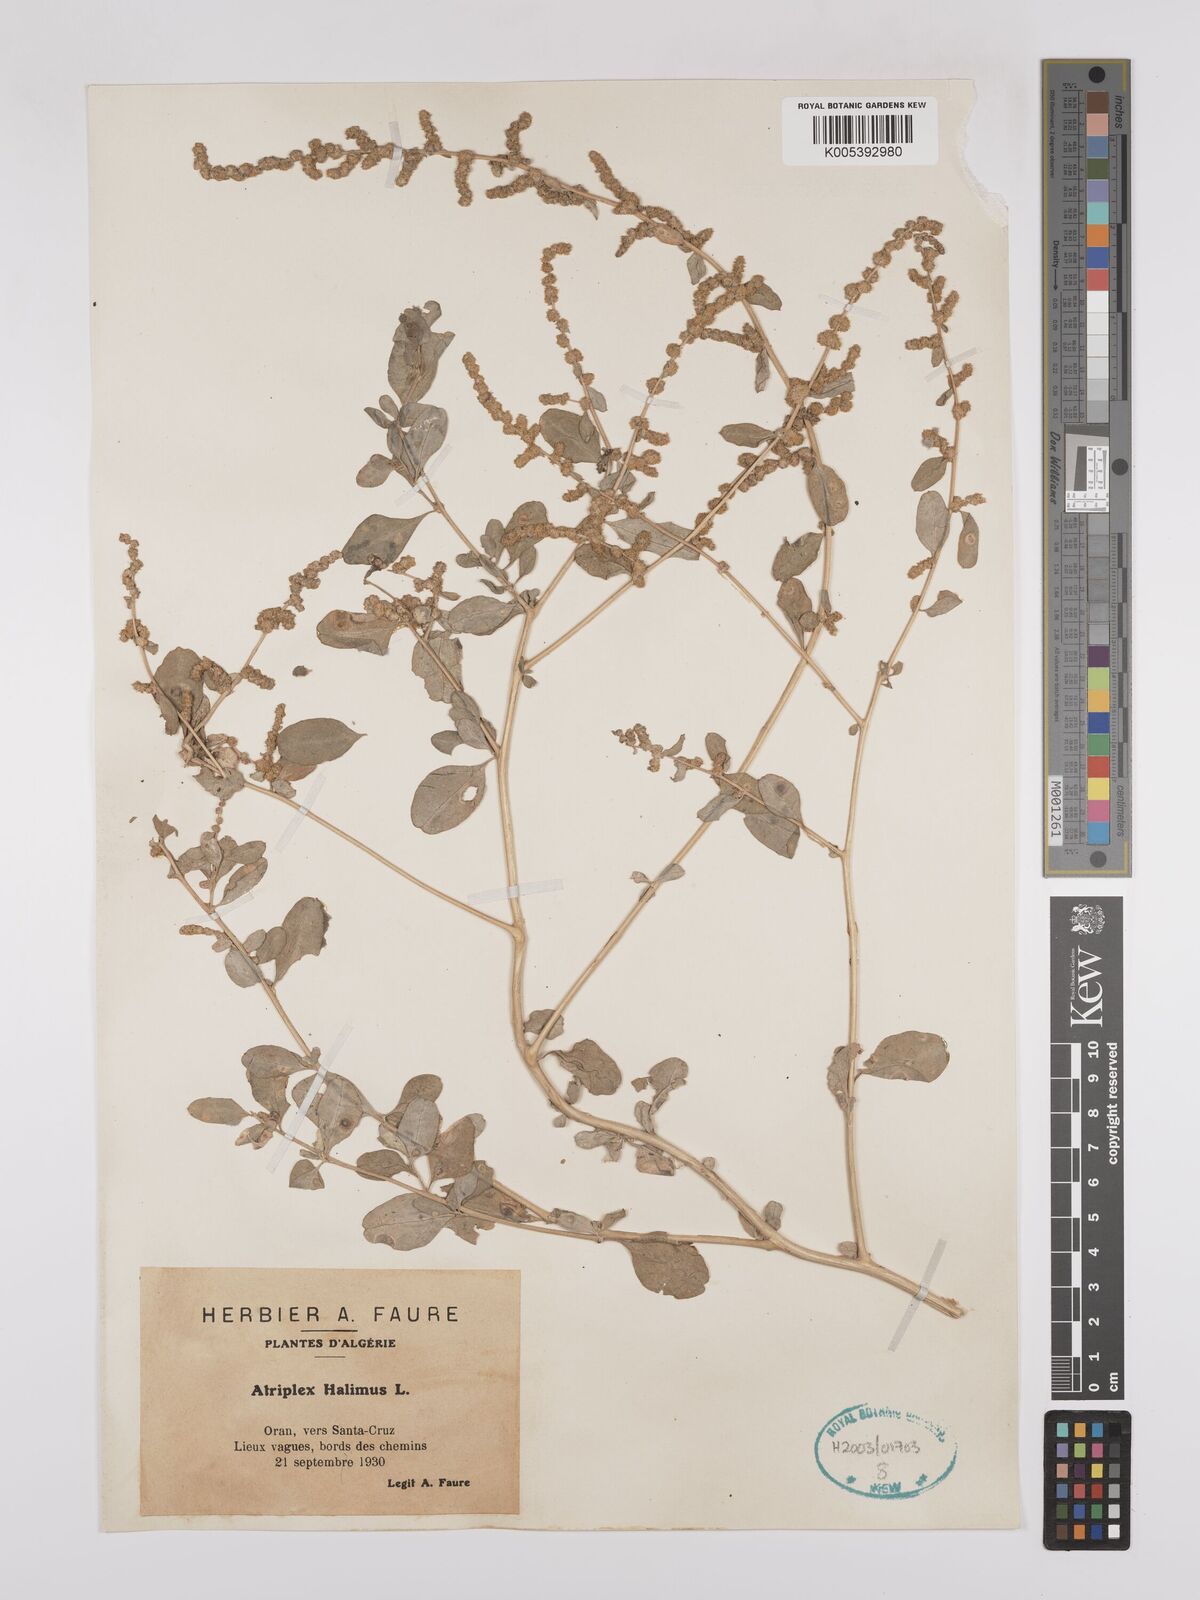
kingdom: Plantae
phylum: Tracheophyta
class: Magnoliopsida
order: Caryophyllales
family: Amaranthaceae
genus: Atriplex
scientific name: Atriplex
